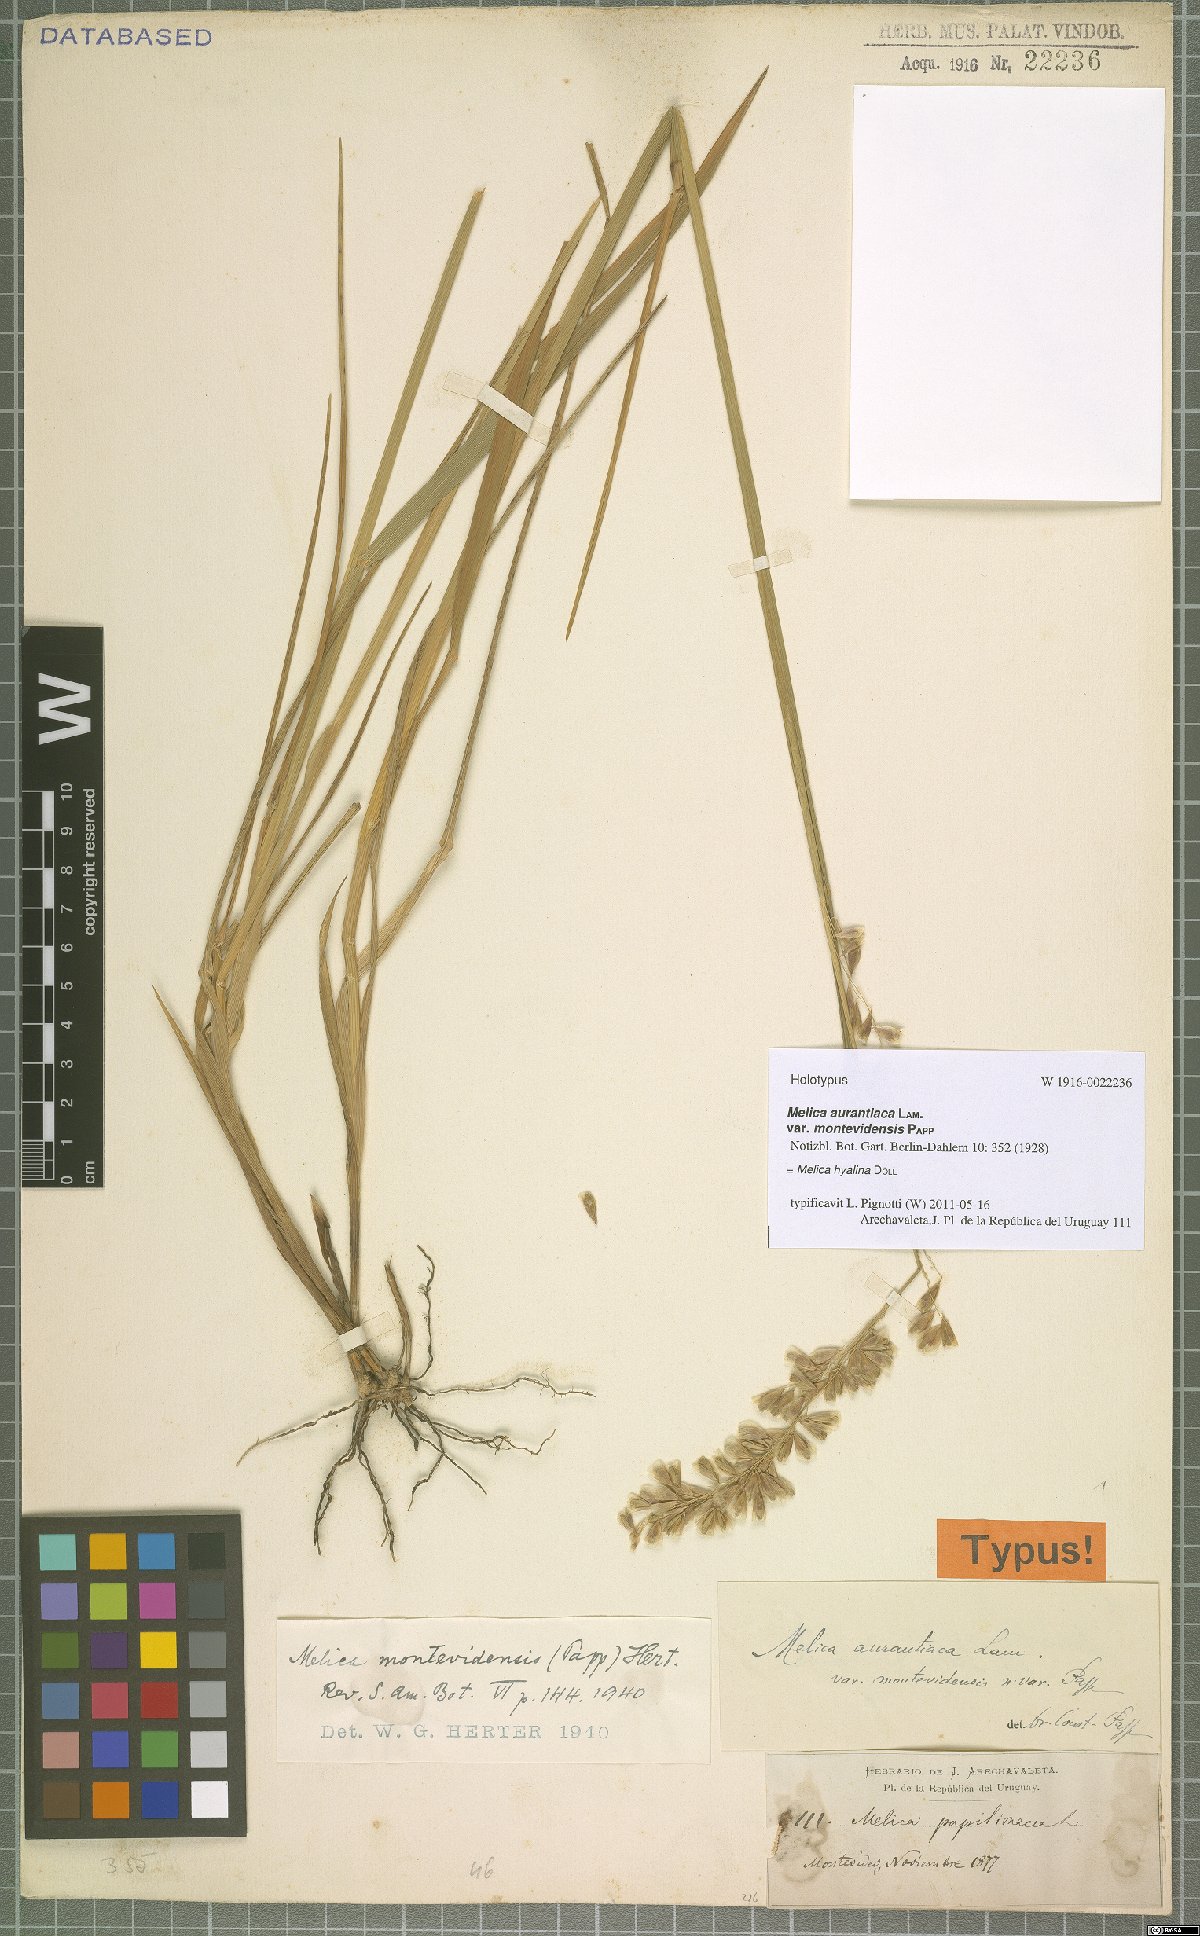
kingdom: Plantae
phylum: Tracheophyta
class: Liliopsida
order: Poales
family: Poaceae
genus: Melica
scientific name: Melica hyalina
